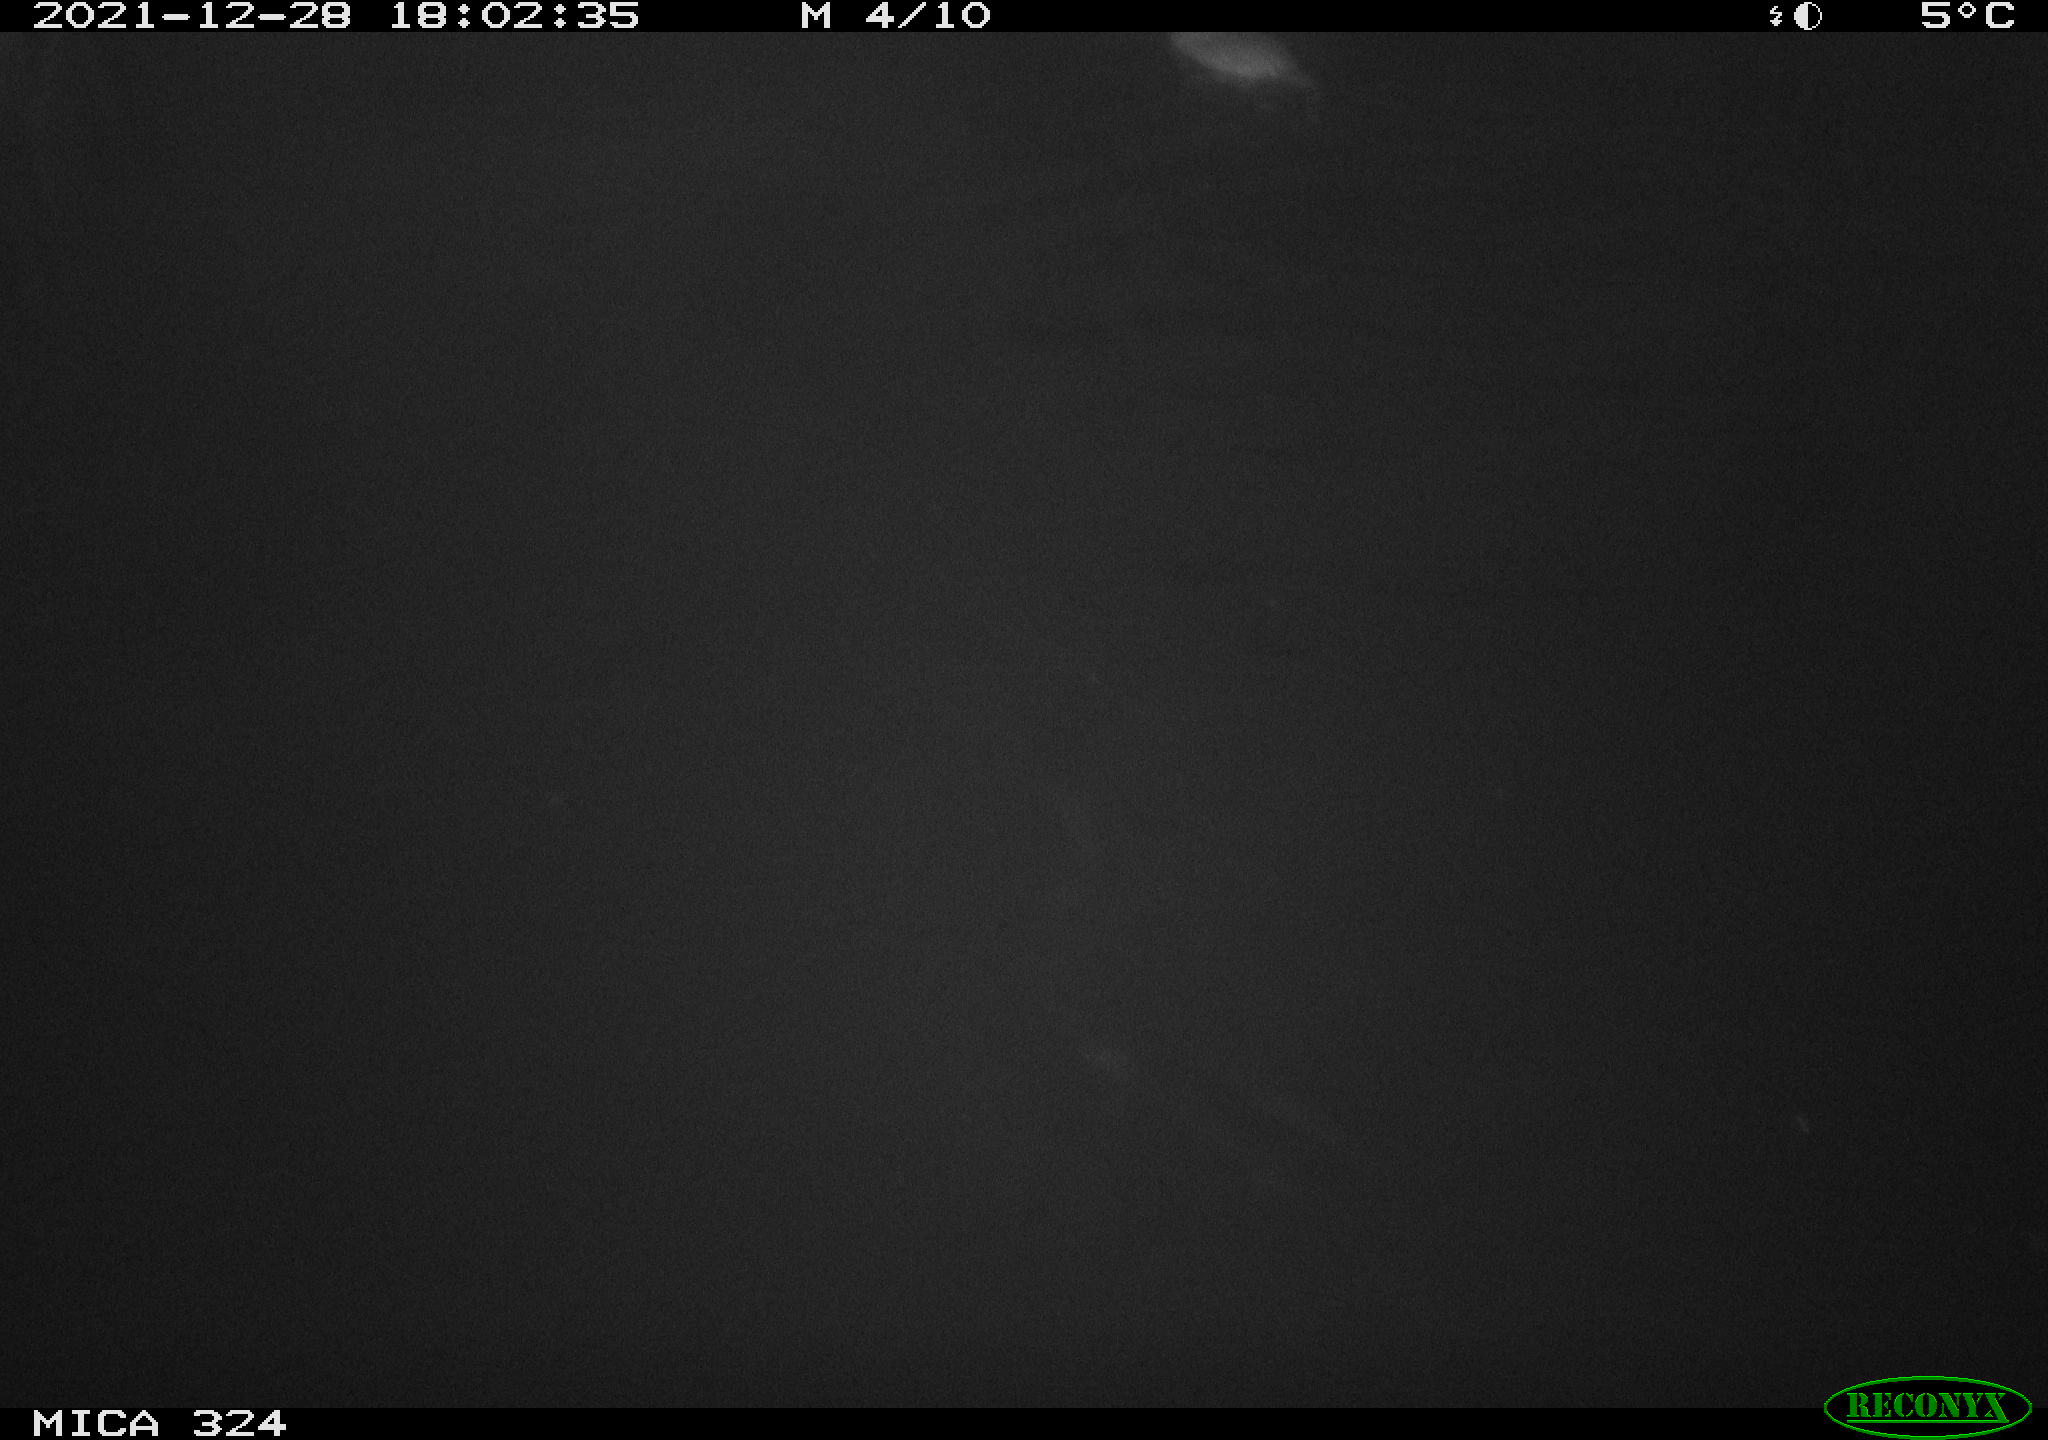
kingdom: Animalia
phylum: Chordata
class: Mammalia
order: Rodentia
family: Cricetidae
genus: Ondatra
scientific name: Ondatra zibethicus
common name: Muskrat
